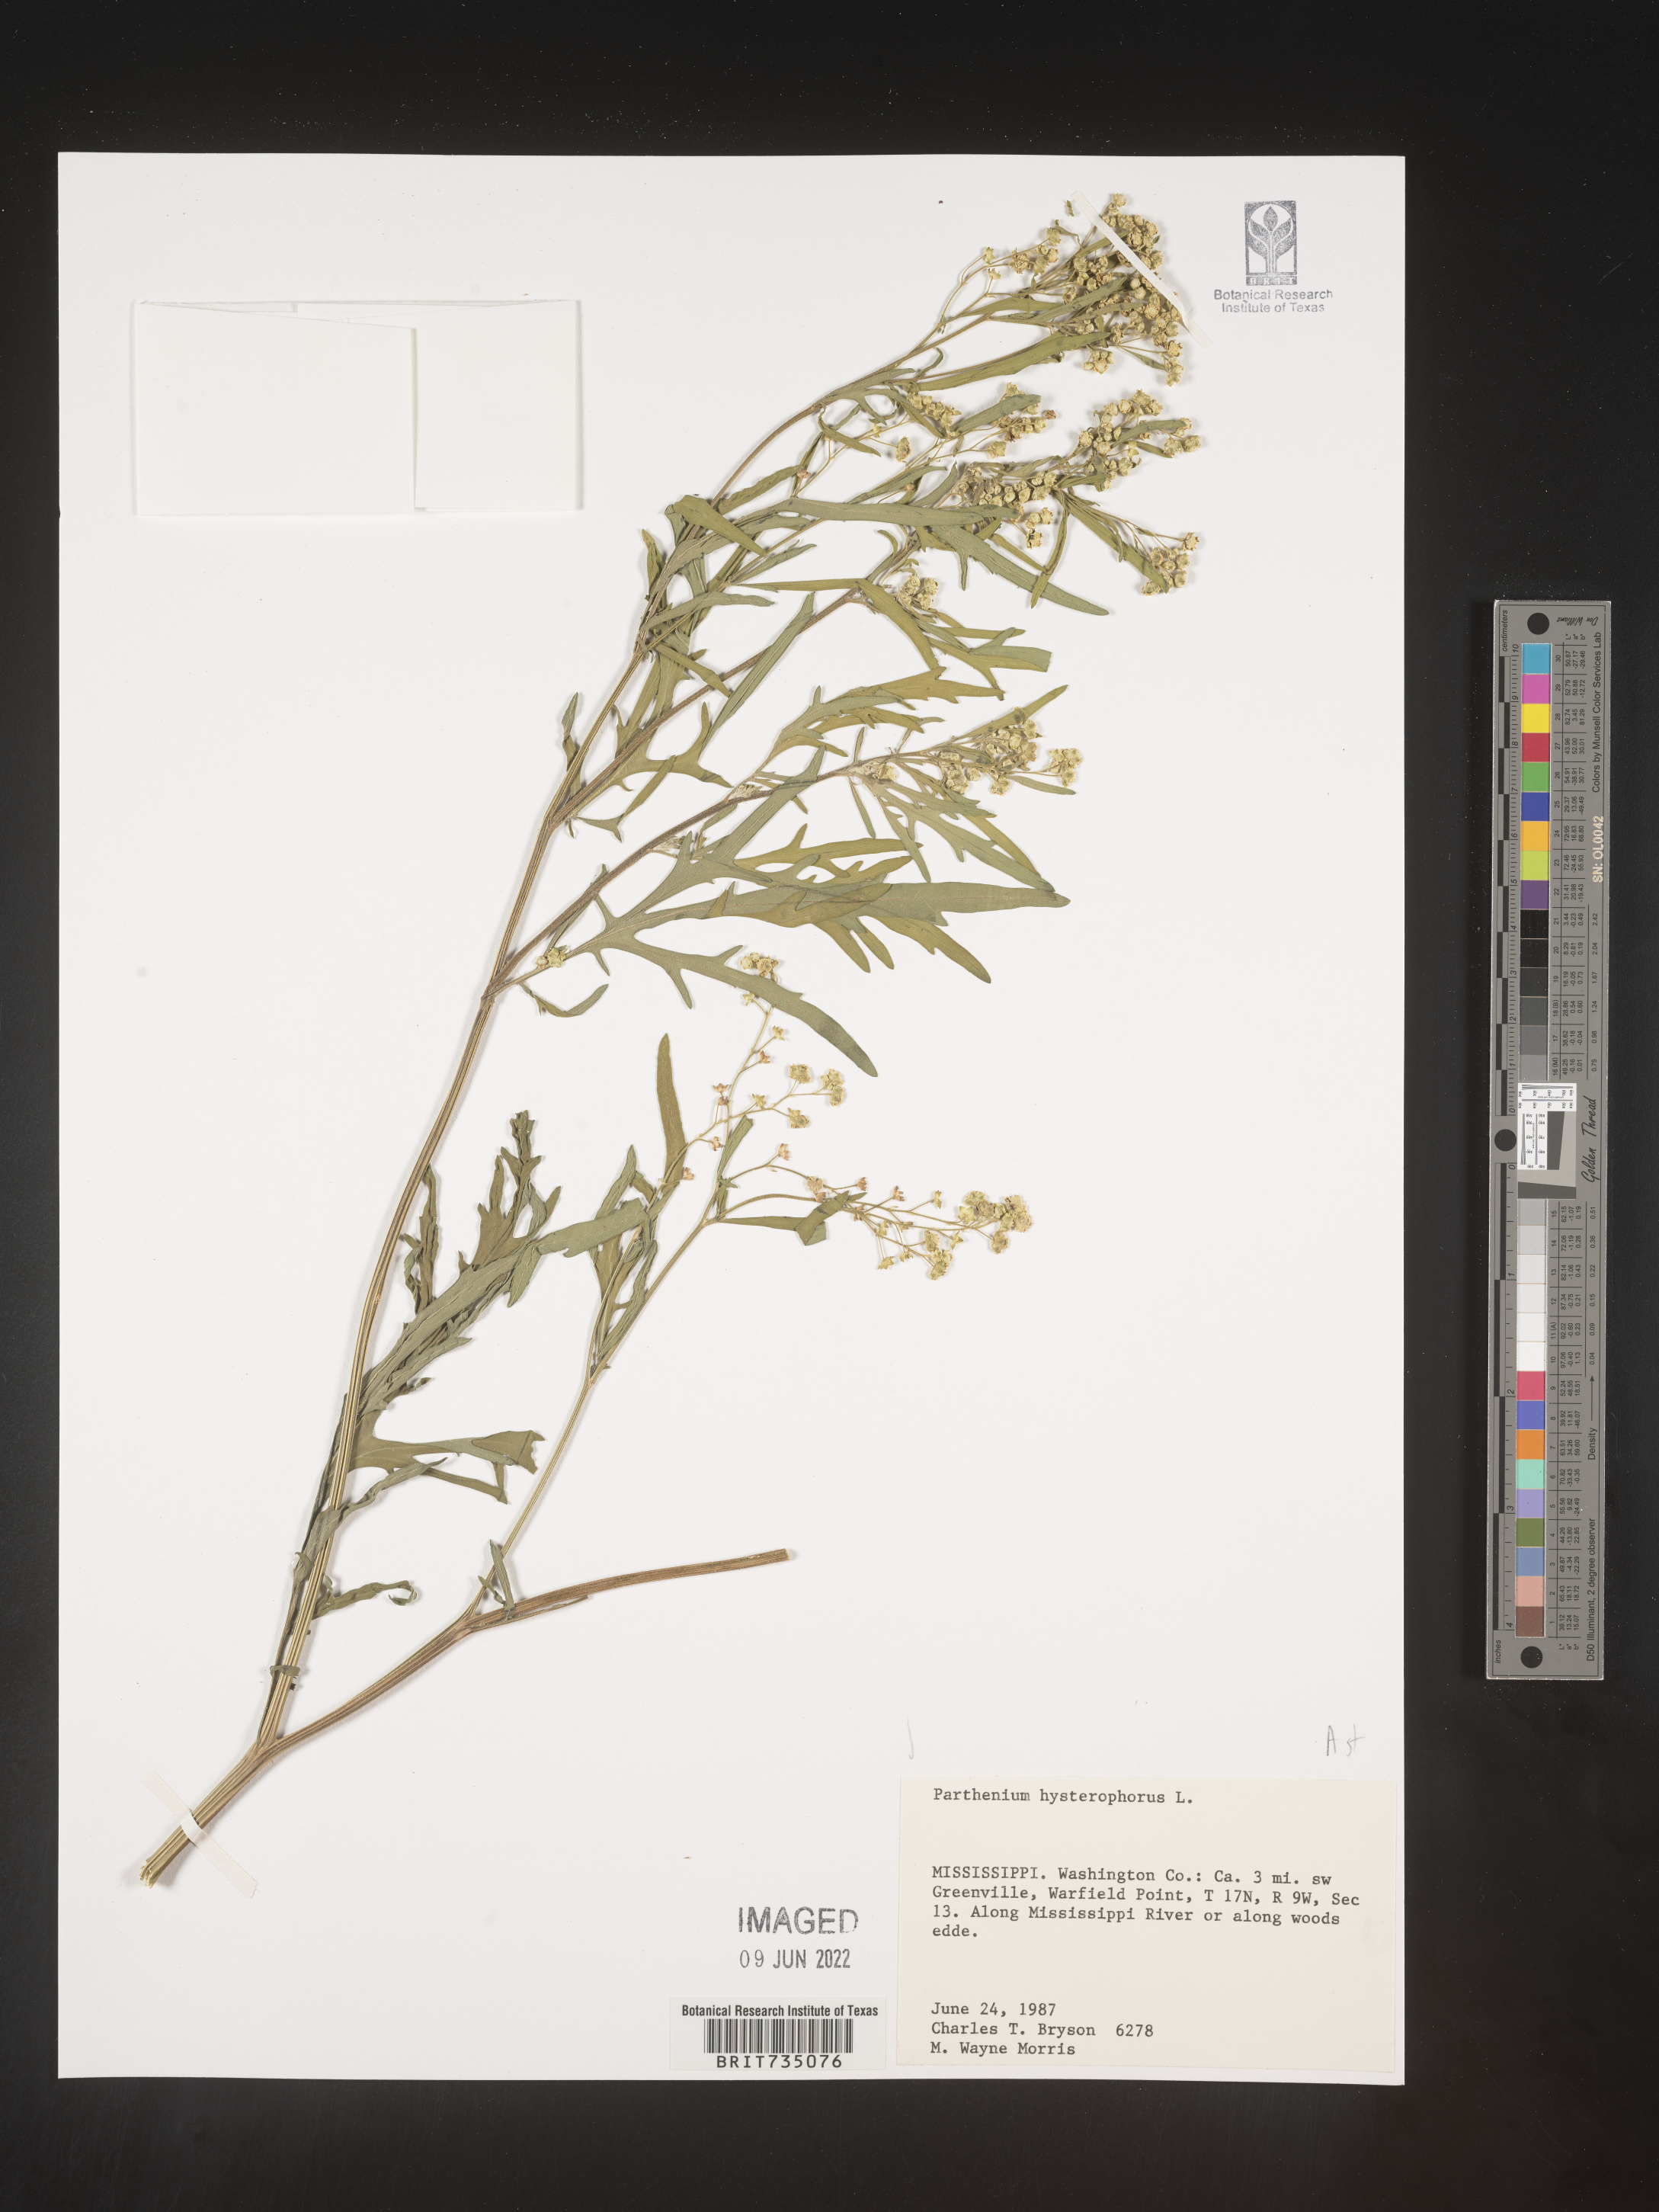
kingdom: Plantae
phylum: Tracheophyta
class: Magnoliopsida
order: Asterales
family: Asteraceae
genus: Parthenium
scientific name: Parthenium hysterophorus
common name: Santa maria feverfew
